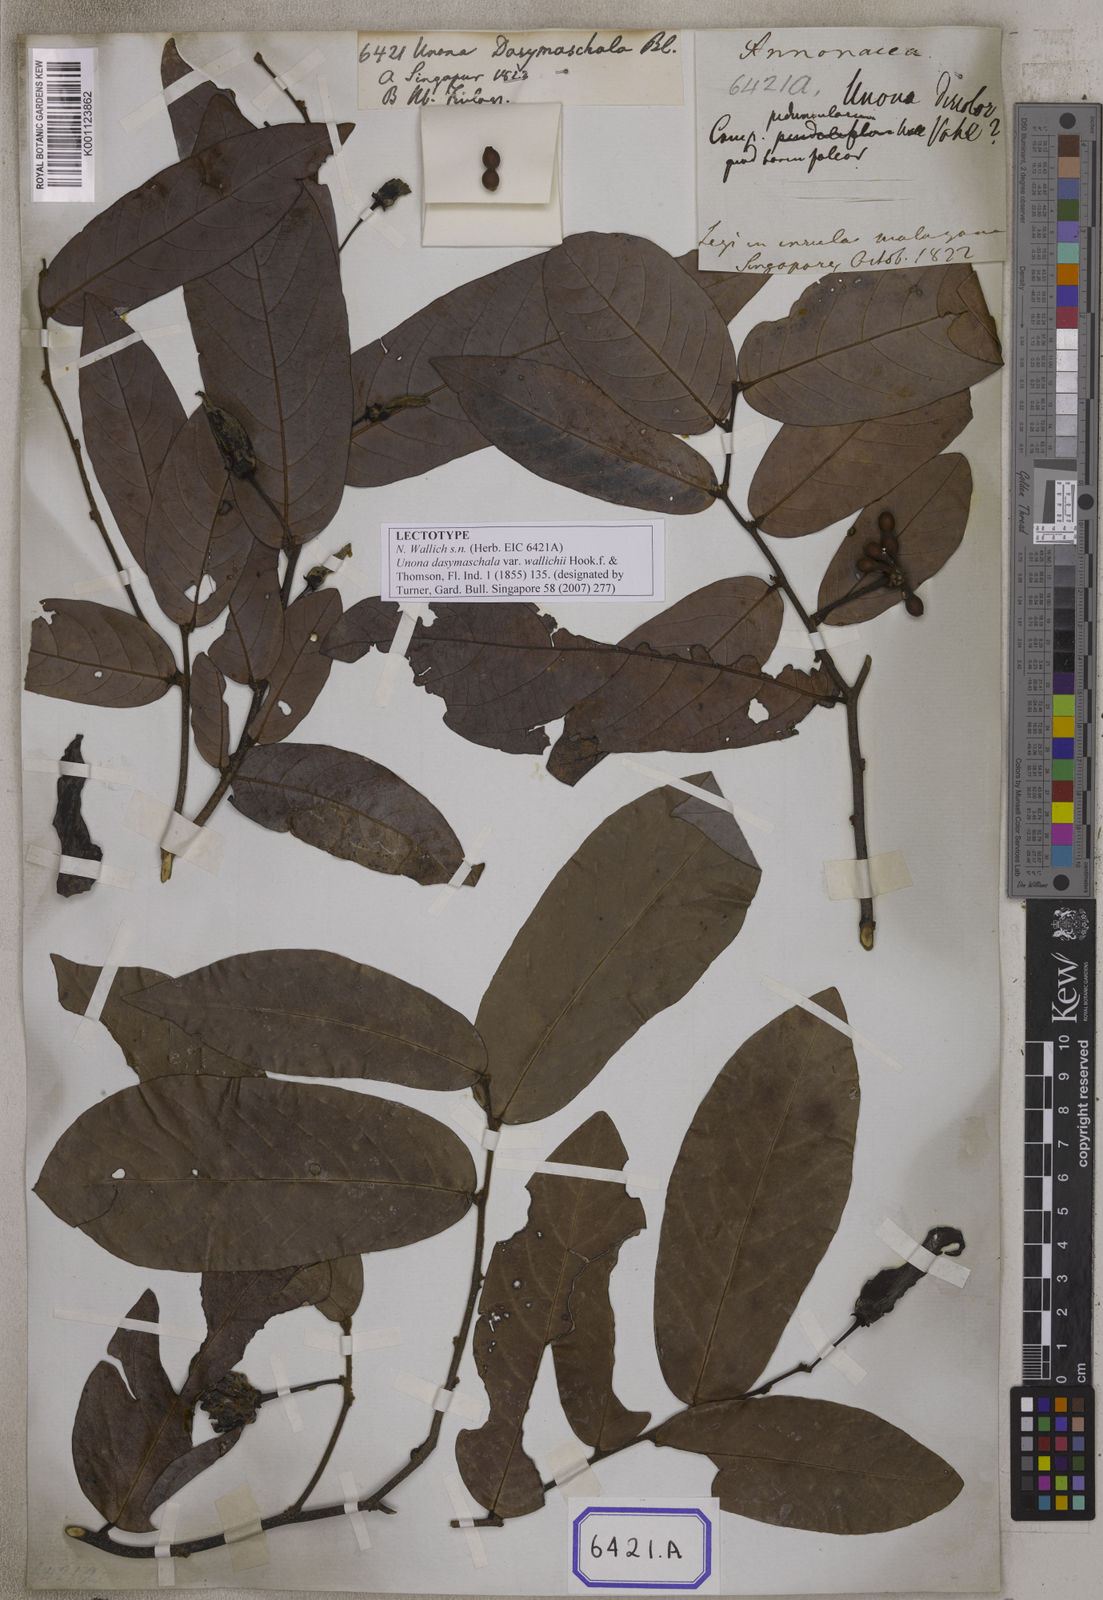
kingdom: Plantae
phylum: Tracheophyta
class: Magnoliopsida
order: Magnoliales
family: Annonaceae
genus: Dasymaschalon
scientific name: Dasymaschalon dasymaschalum
